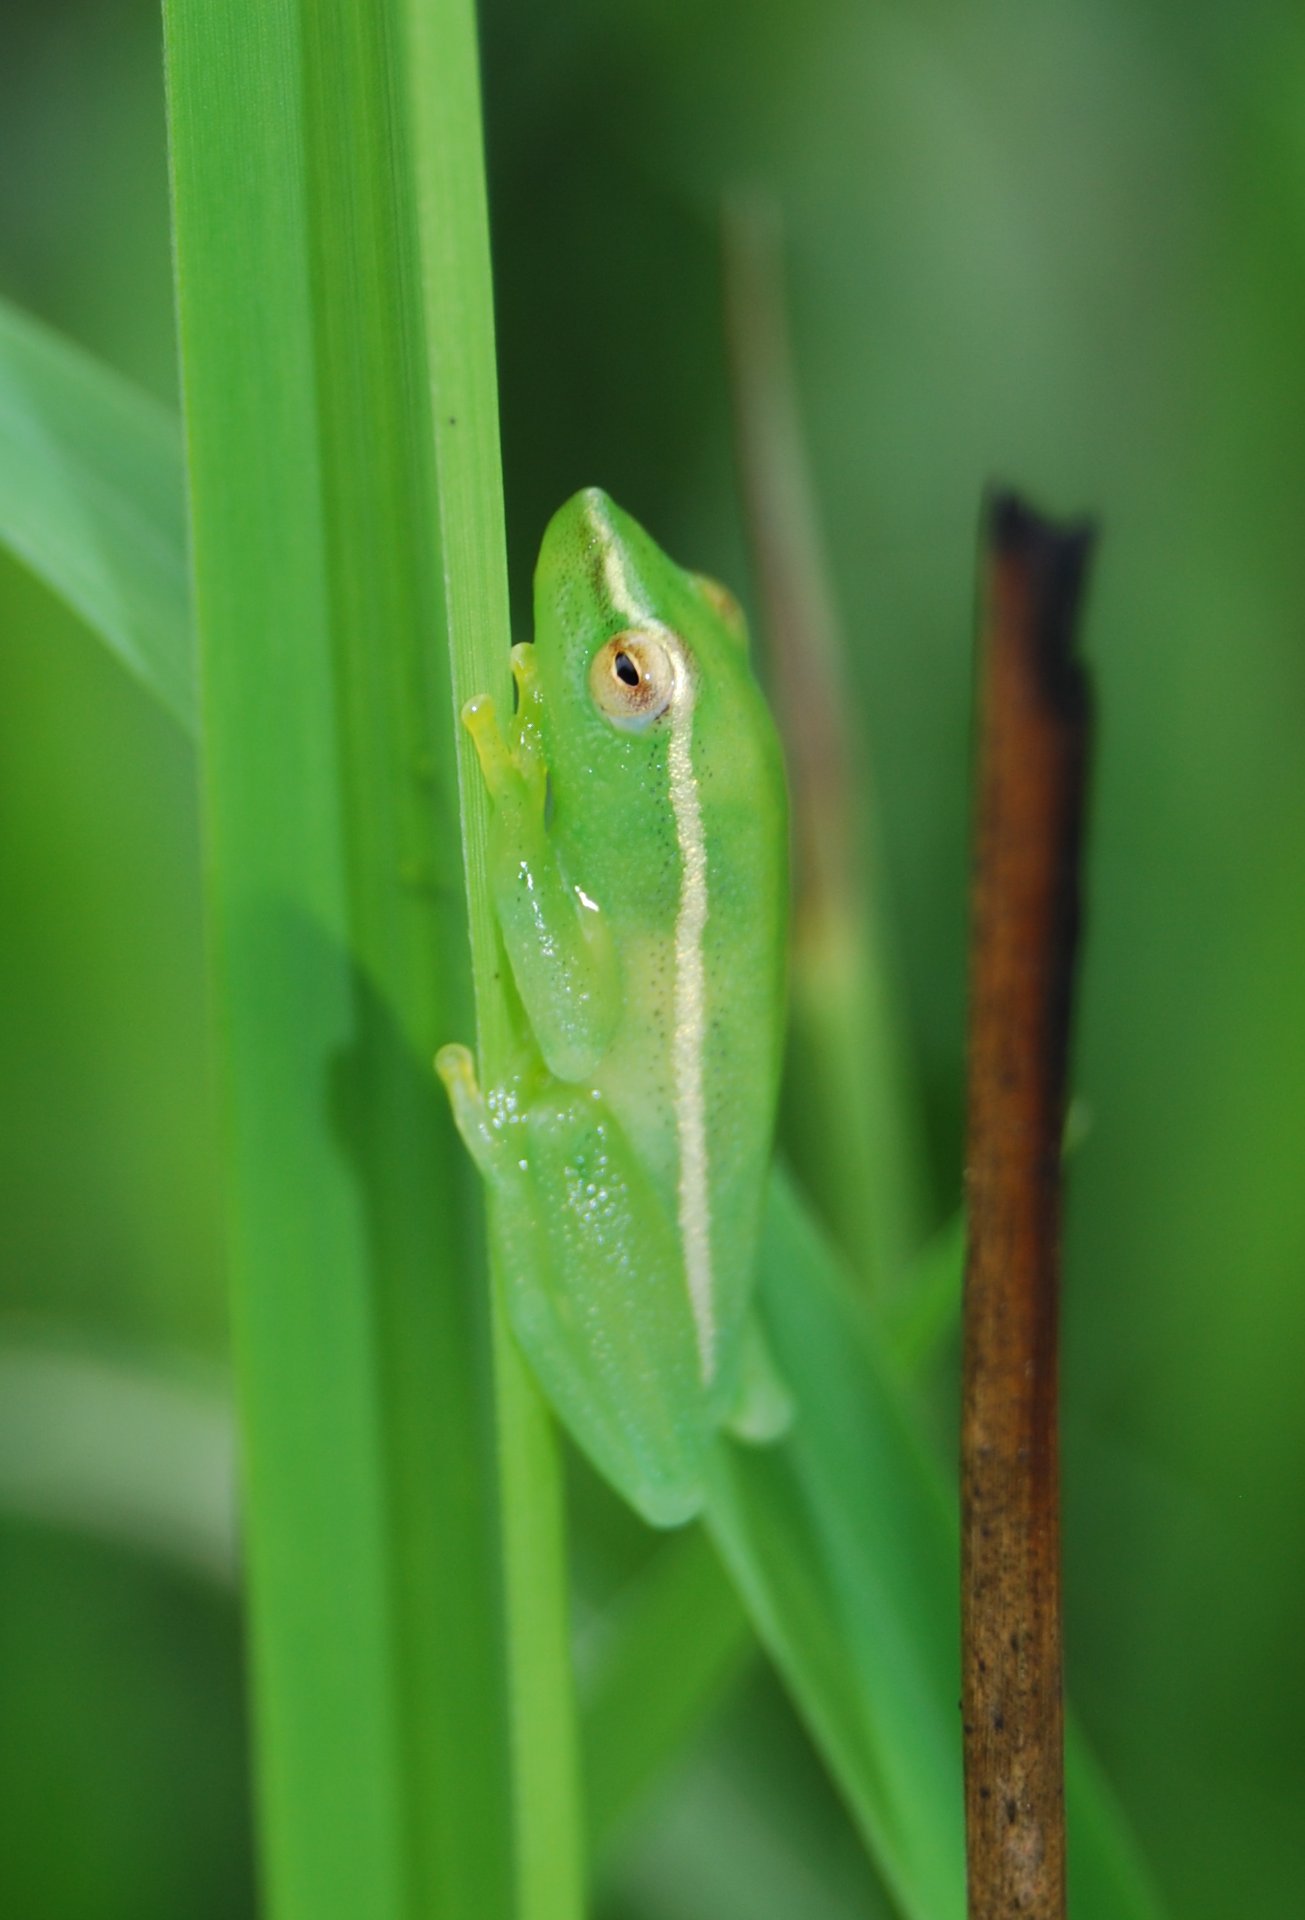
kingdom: Animalia
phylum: Chordata
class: Amphibia
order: Anura
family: Hyperoliidae
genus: Hyperolius
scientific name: Hyperolius nasicus
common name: Pointed long reed frog
